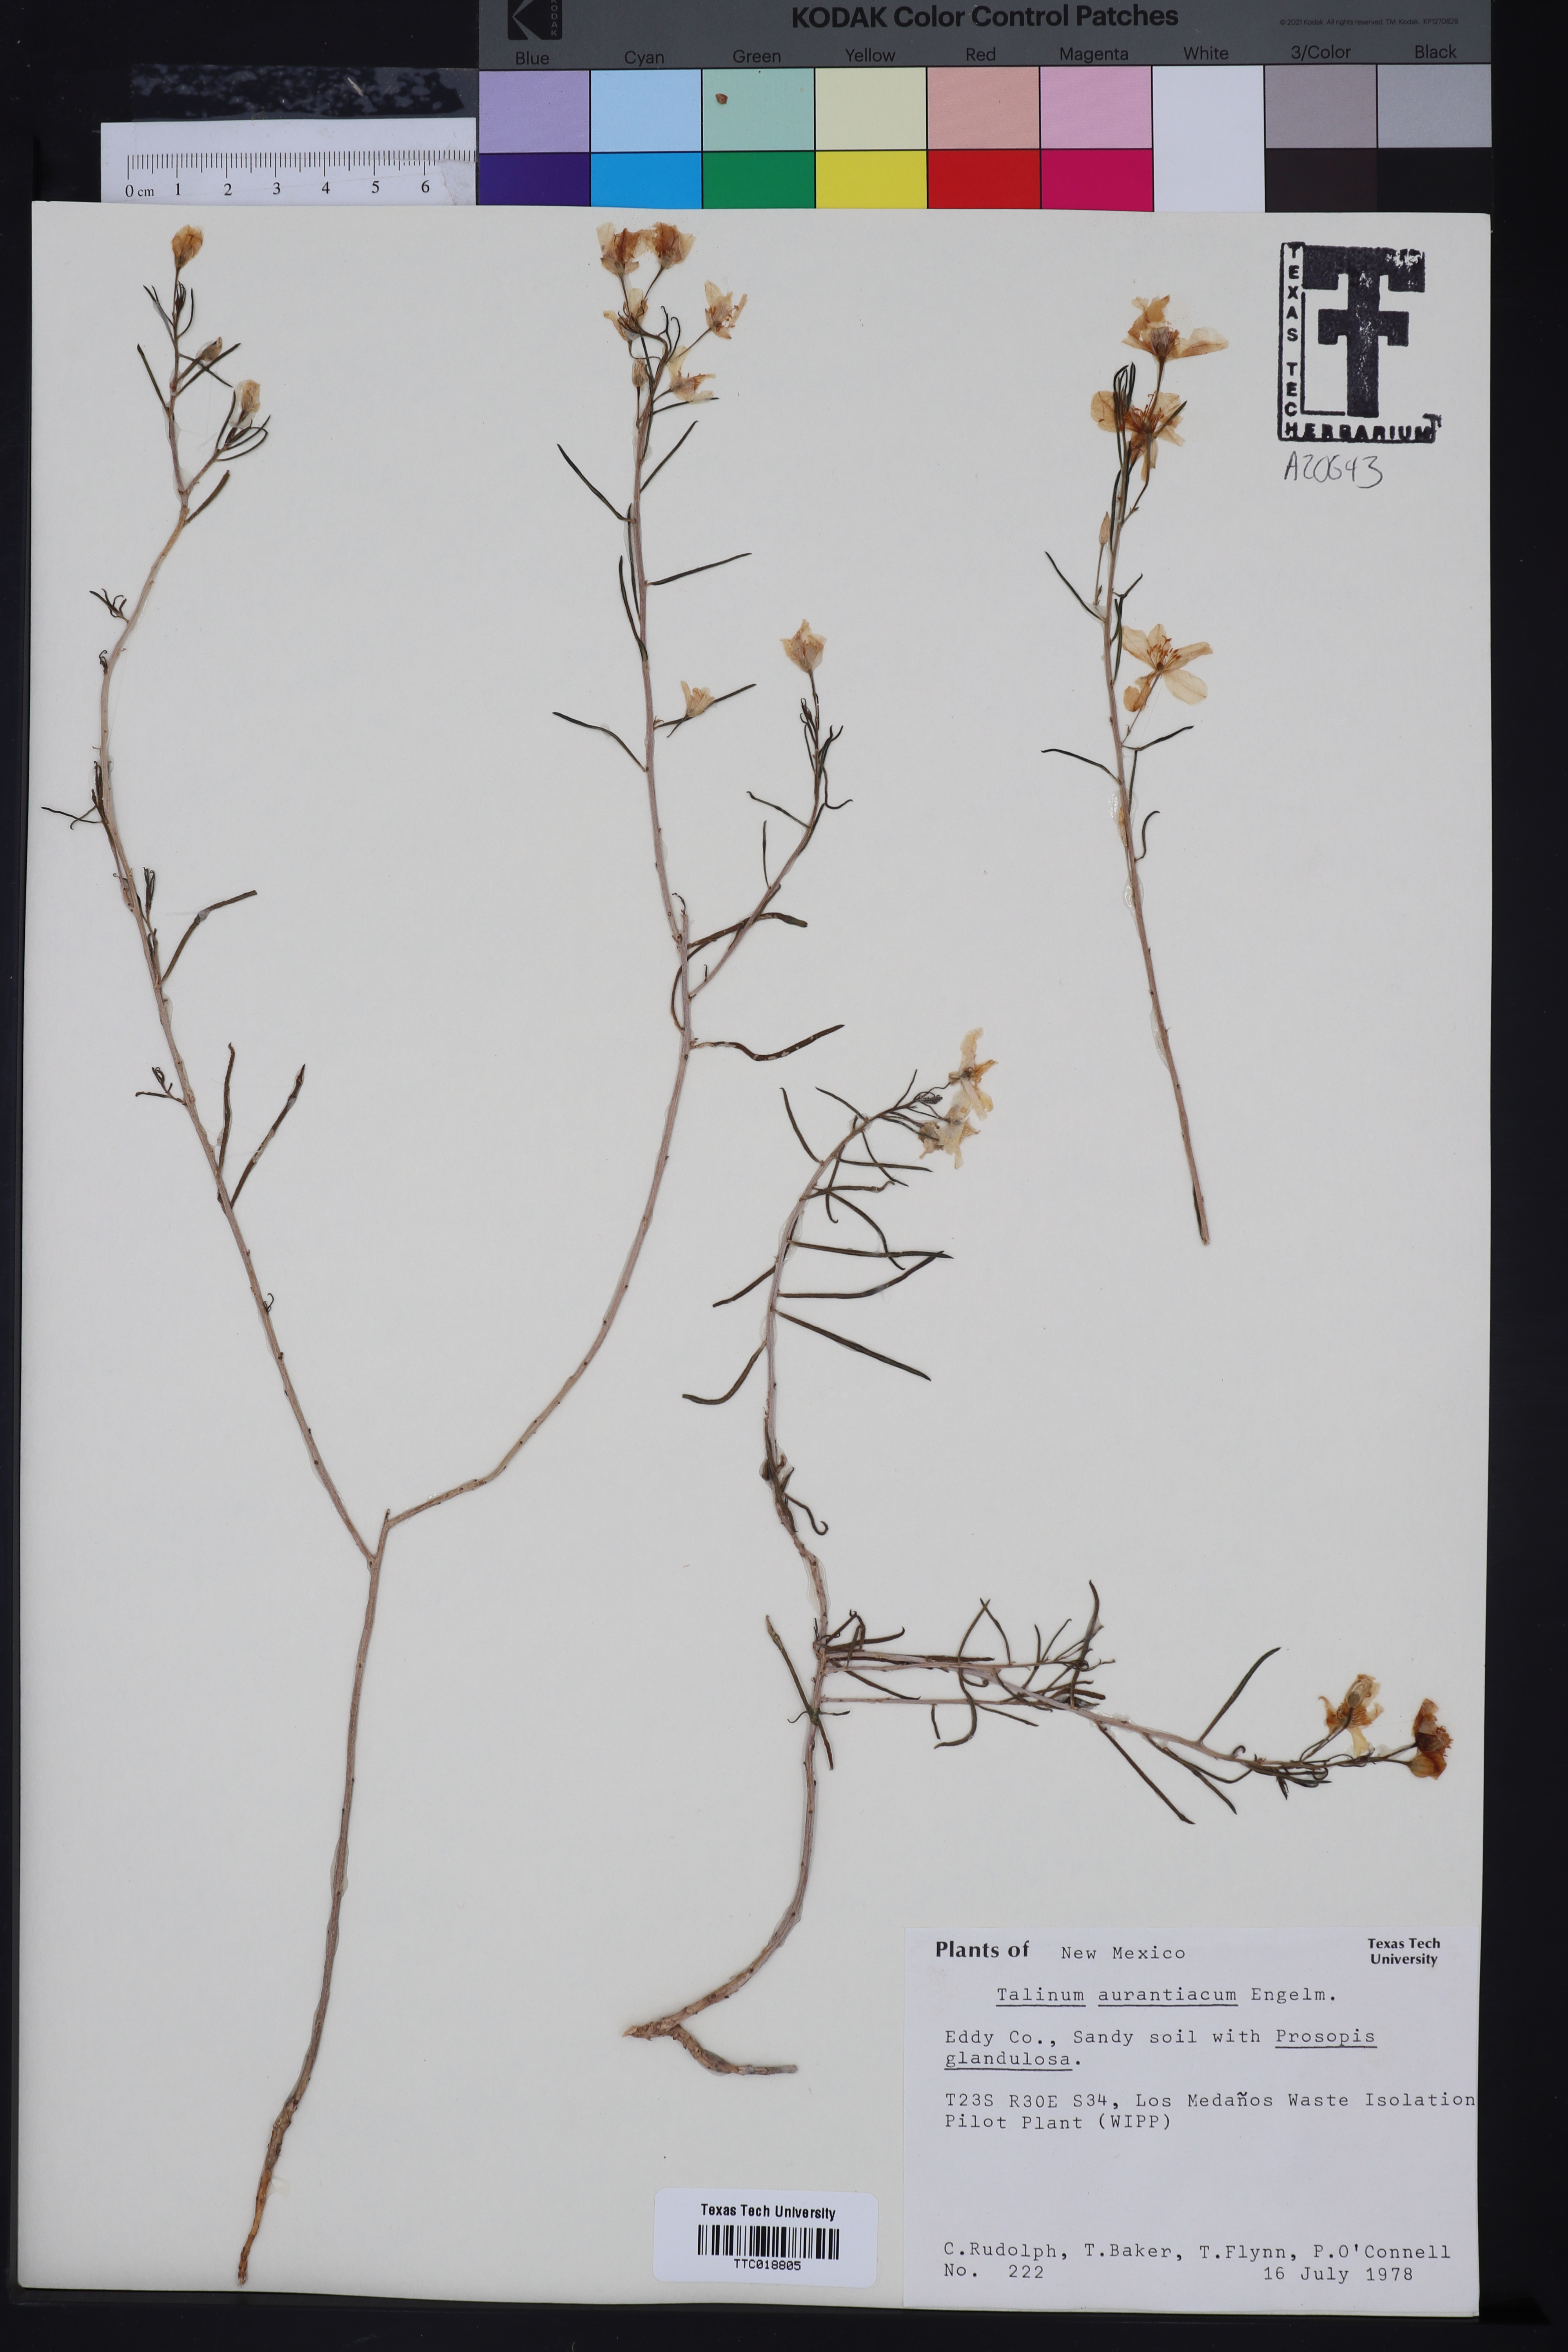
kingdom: Plantae
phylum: Tracheophyta
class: Magnoliopsida
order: Caryophyllales
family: Montiaceae
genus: Phemeranthus
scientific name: Phemeranthus aurantiacus
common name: Orange fameflower
